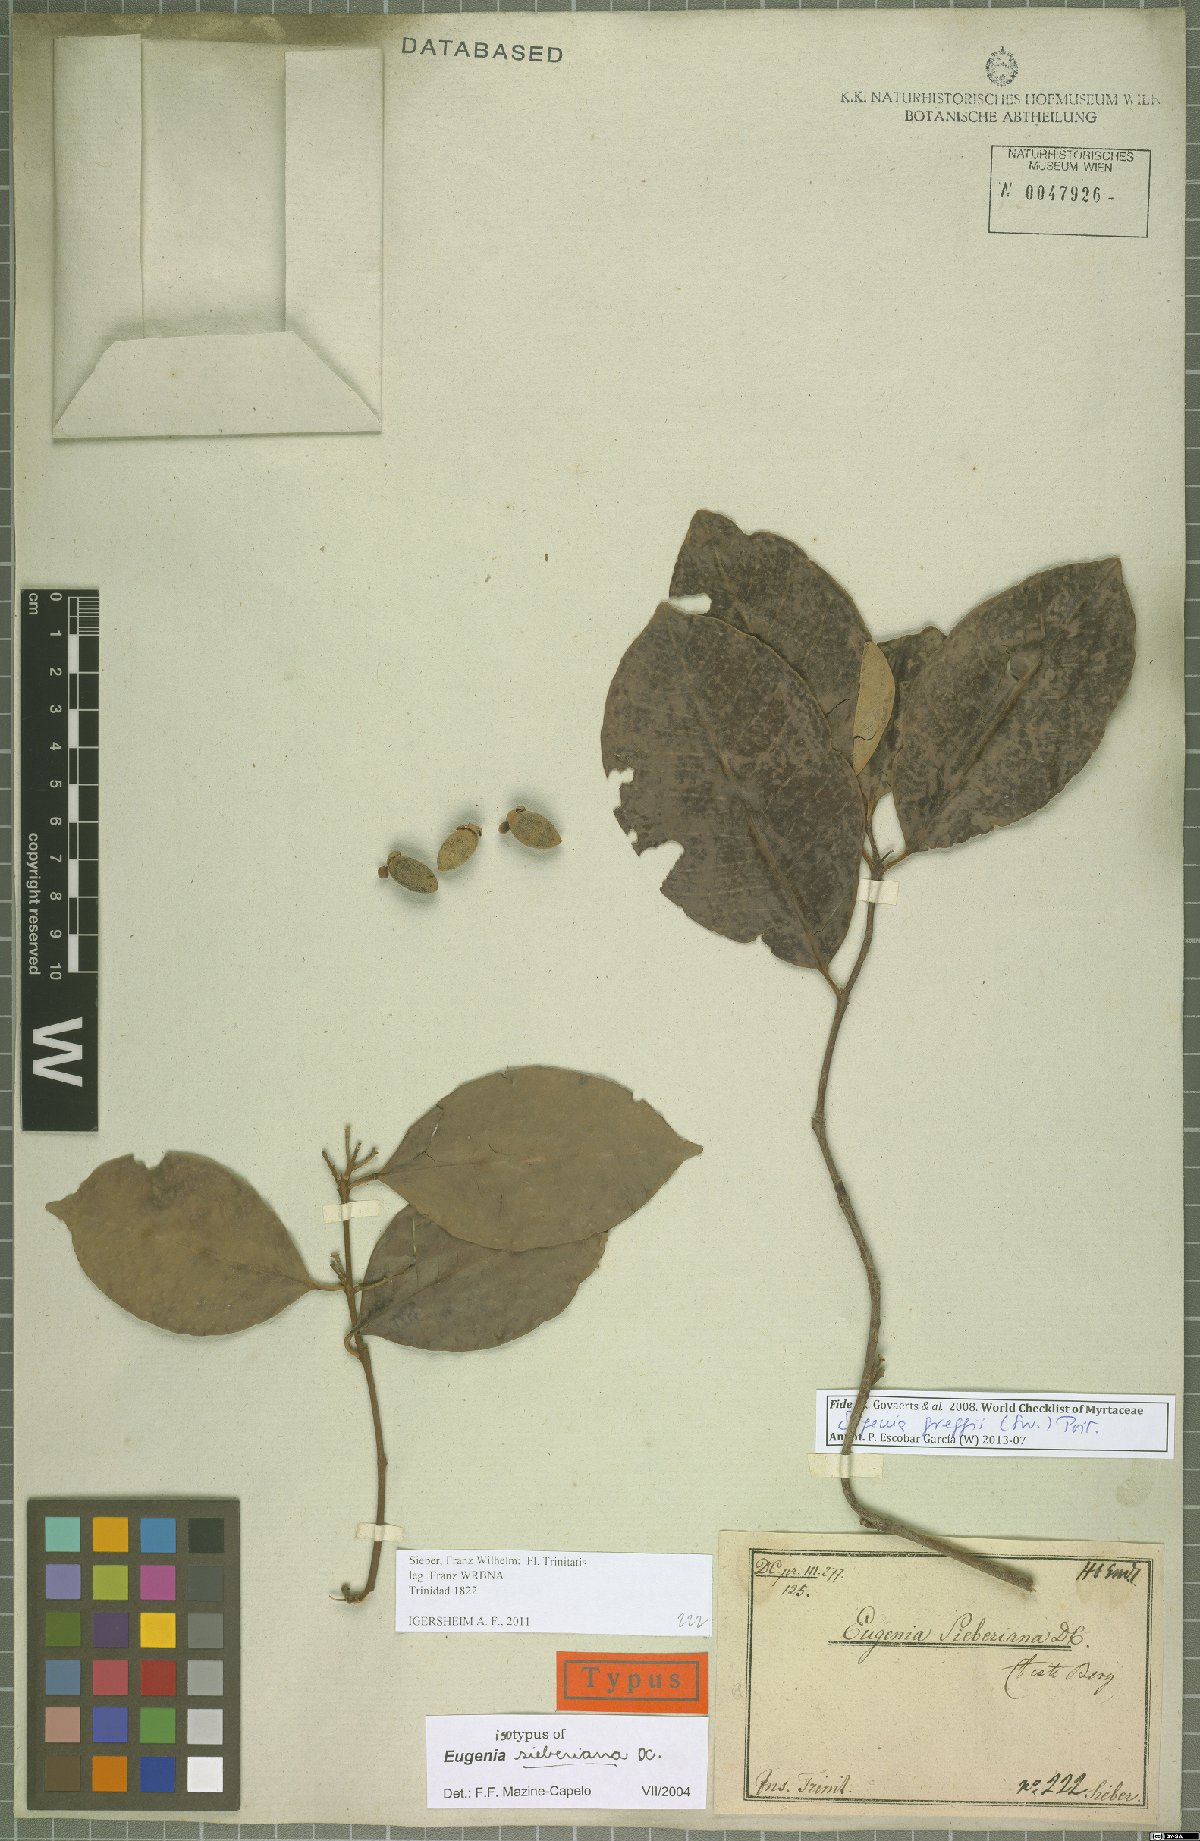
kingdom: Plantae
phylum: Tracheophyta
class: Magnoliopsida
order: Myrtales
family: Myrtaceae
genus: Eugenia
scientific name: Eugenia greggii
